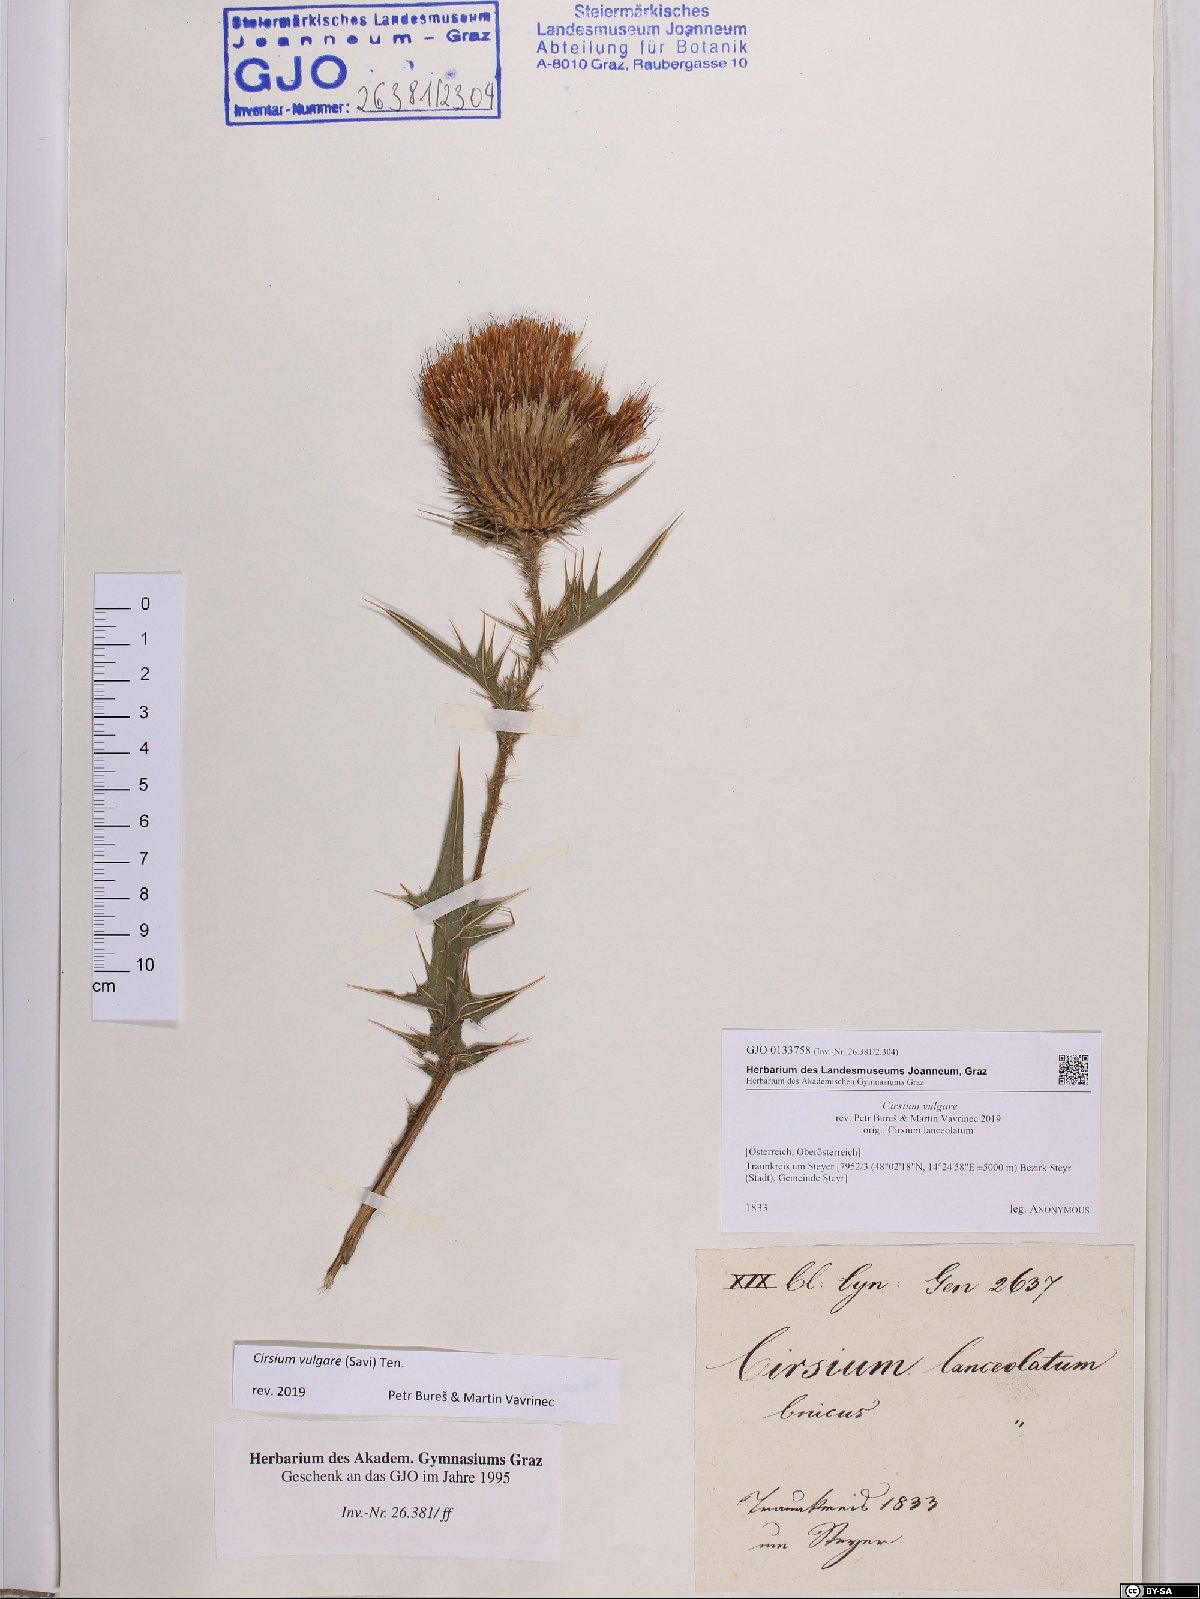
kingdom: Plantae
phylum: Tracheophyta
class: Magnoliopsida
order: Asterales
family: Asteraceae
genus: Cirsium
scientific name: Cirsium vulgare
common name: Bull thistle
